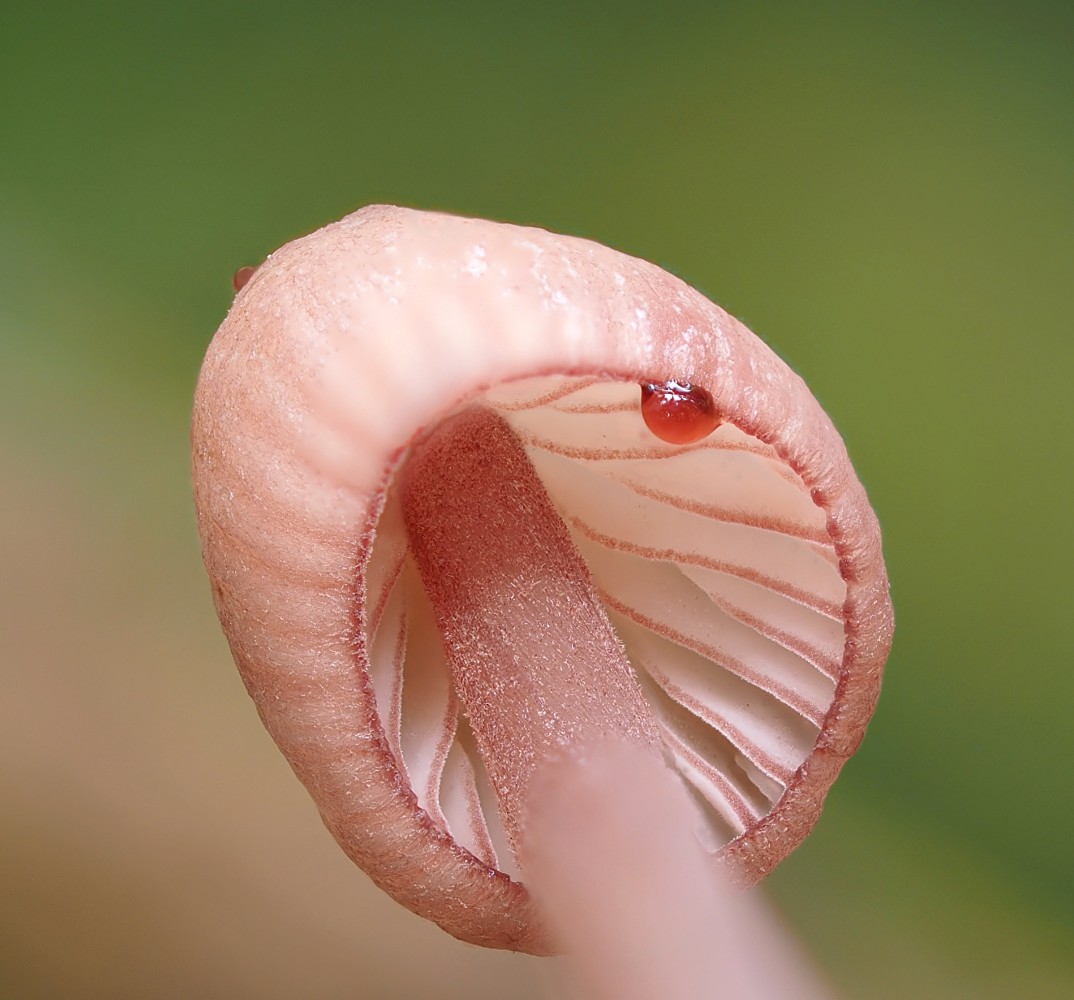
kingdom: Fungi
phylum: Basidiomycota
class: Agaricomycetes
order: Agaricales
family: Mycenaceae
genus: Mycena
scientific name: Mycena sanguinolenta
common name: rødmælket huesvamp
